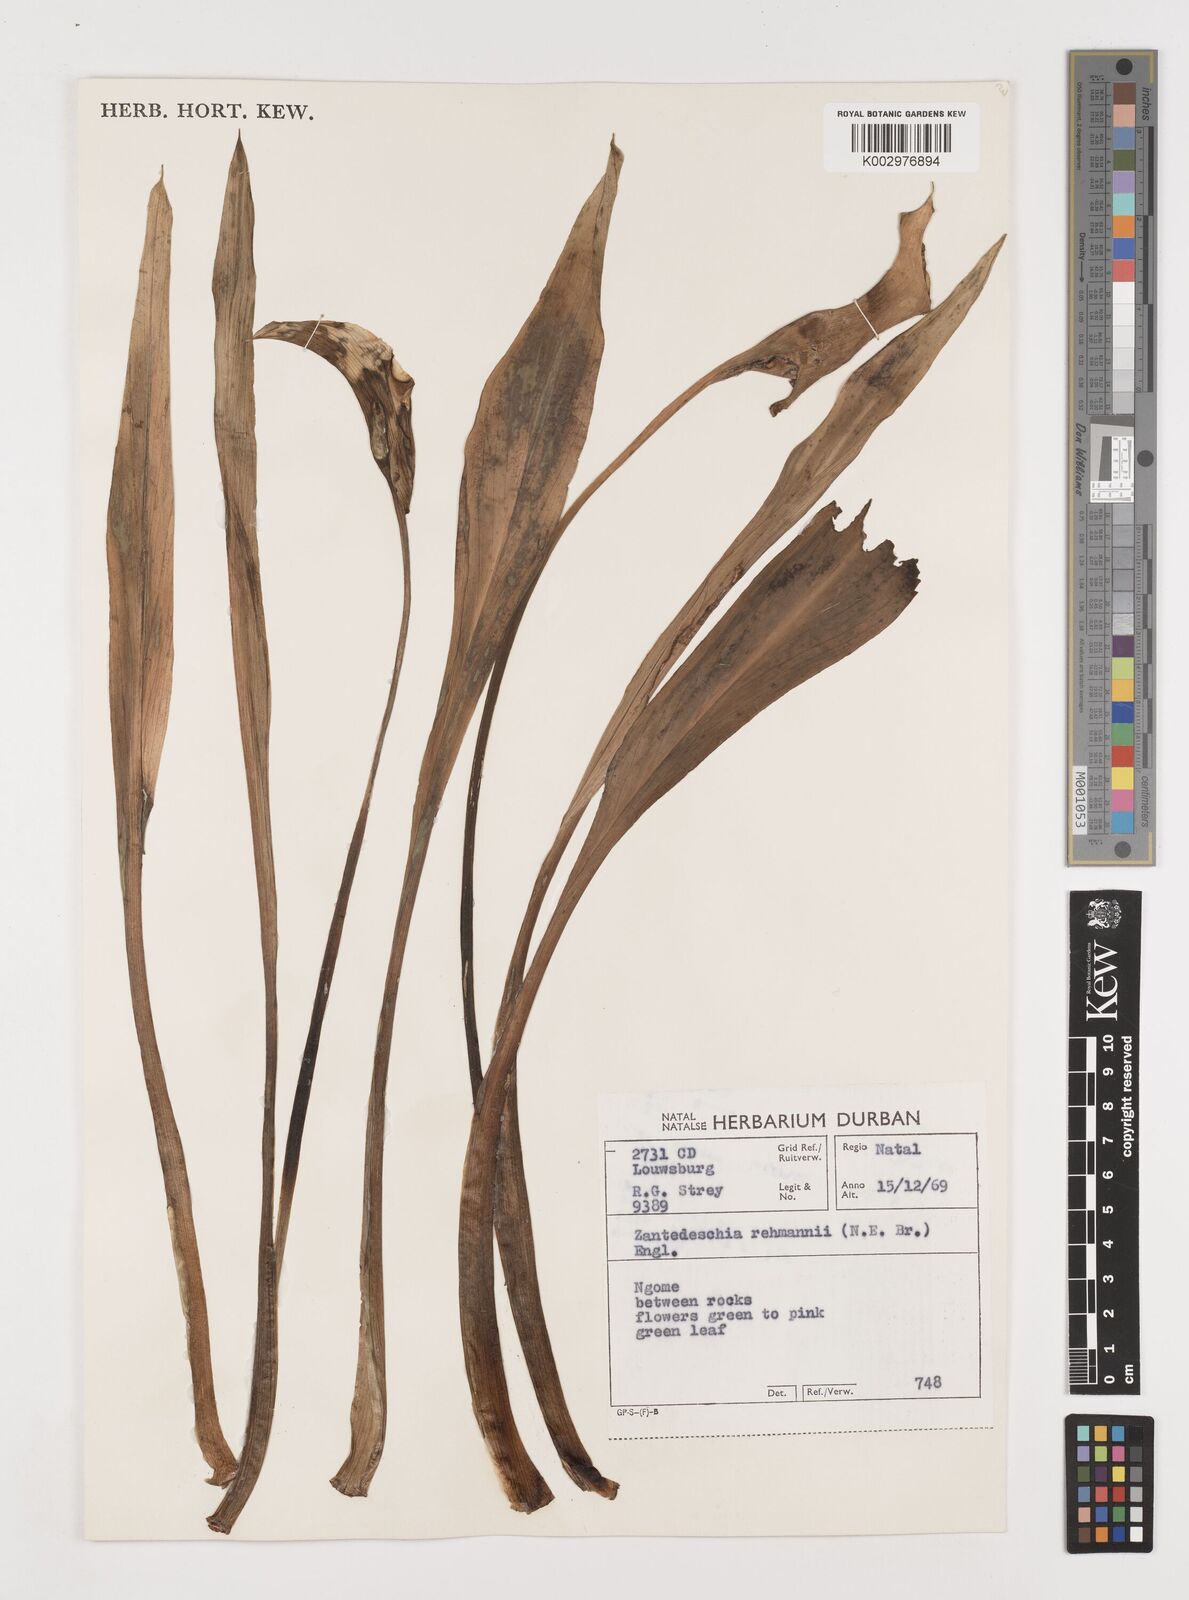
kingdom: Plantae
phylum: Tracheophyta
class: Liliopsida
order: Alismatales
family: Araceae
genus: Zantedeschia
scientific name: Zantedeschia rehmannii
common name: Red calla
